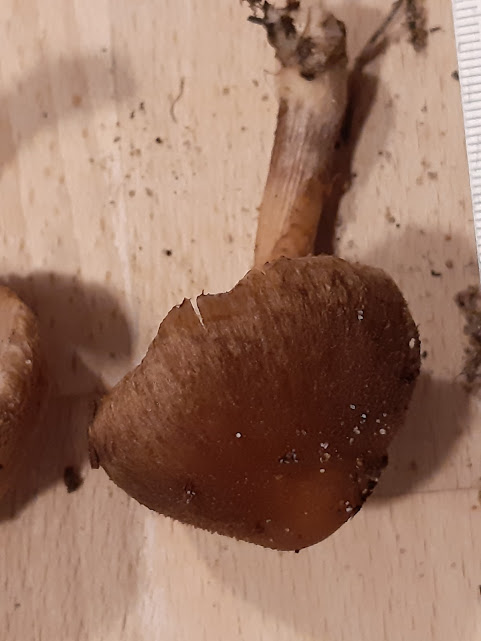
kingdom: Fungi
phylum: Basidiomycota
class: Agaricomycetes
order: Agaricales
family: Inocybaceae
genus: Inocybe
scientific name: Inocybe
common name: trævlhat
